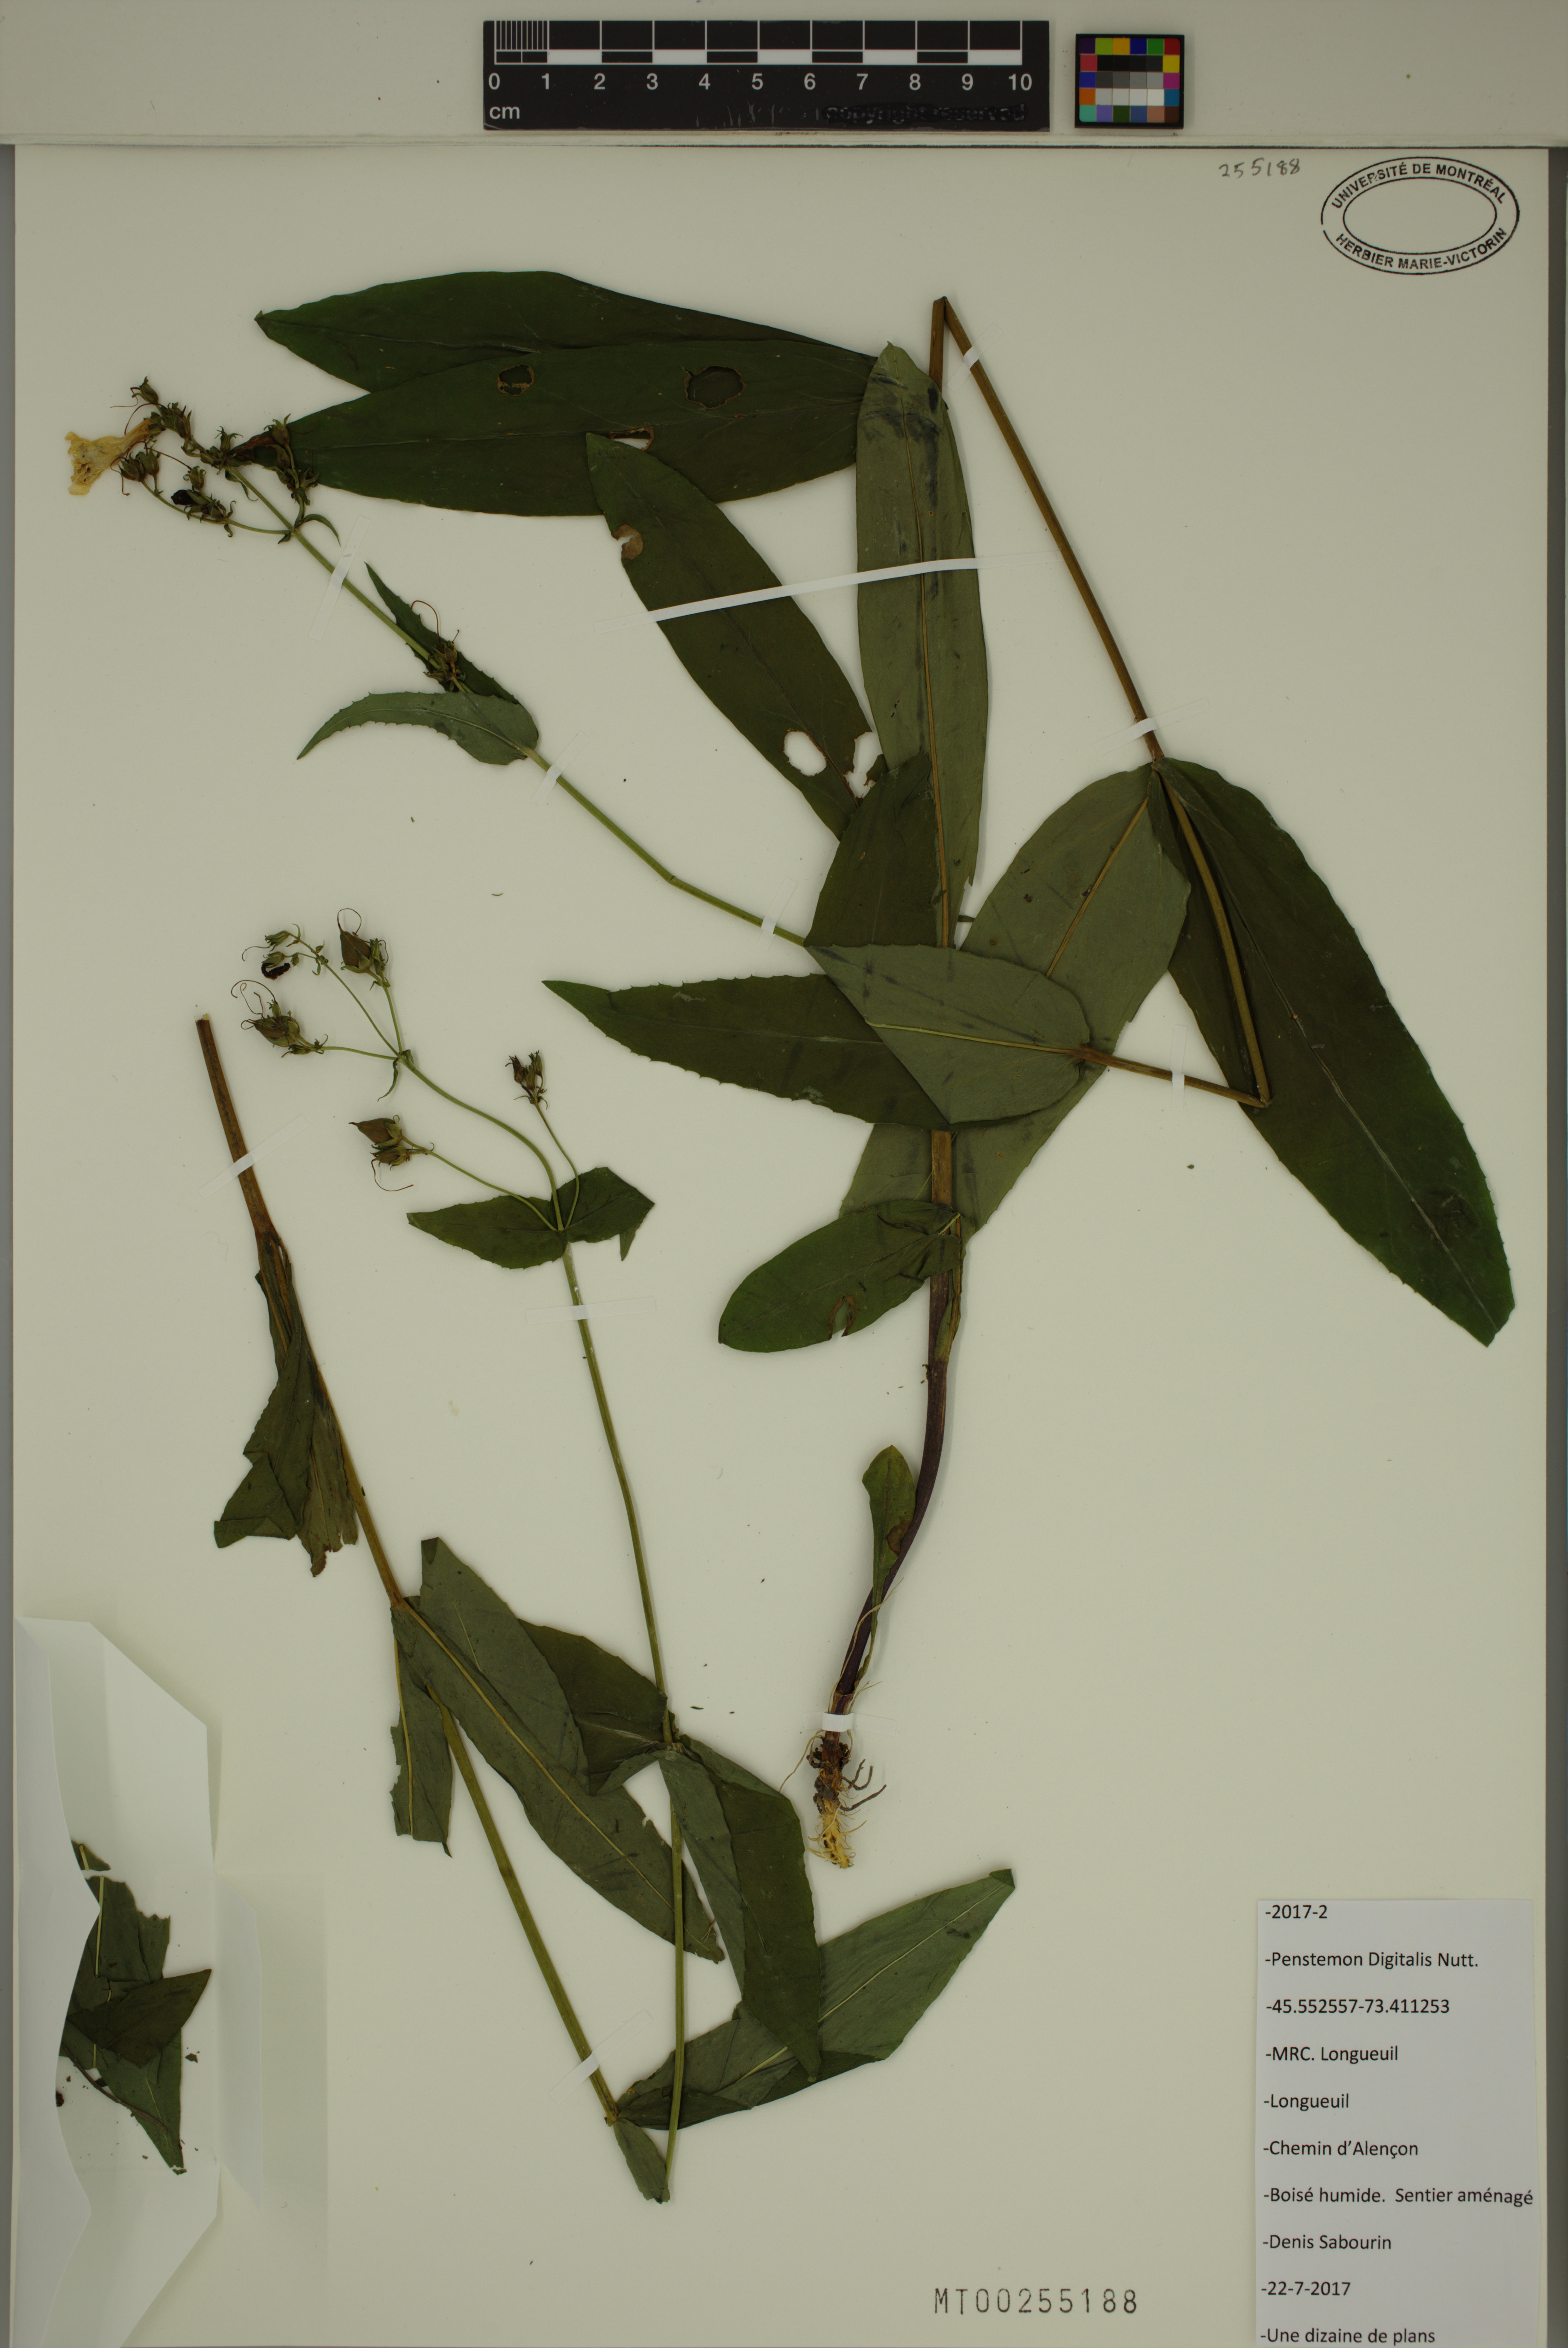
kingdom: Plantae
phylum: Tracheophyta
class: Magnoliopsida
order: Lamiales
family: Plantaginaceae
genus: Penstemon
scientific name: Penstemon digitalis
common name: Foxglove beardtongue
